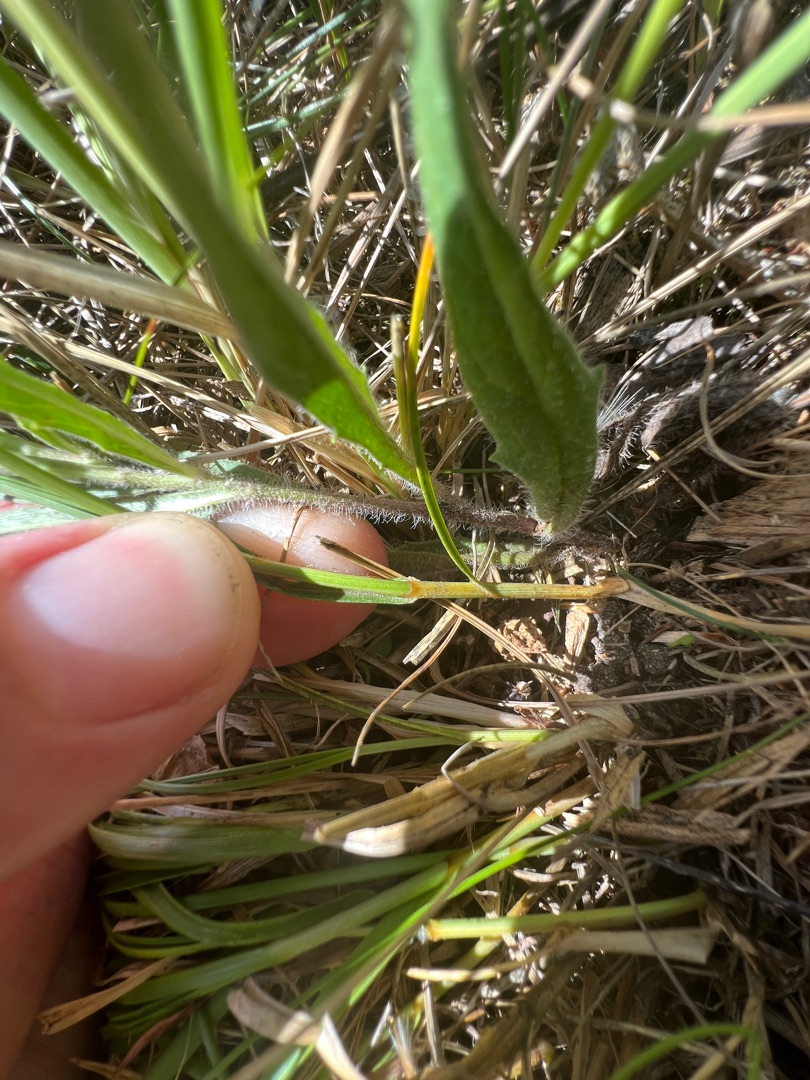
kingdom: Plantae
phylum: Tracheophyta
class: Liliopsida
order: Poales
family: Cyperaceae
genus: Carex
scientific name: Carex arenaria
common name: Sand-star
